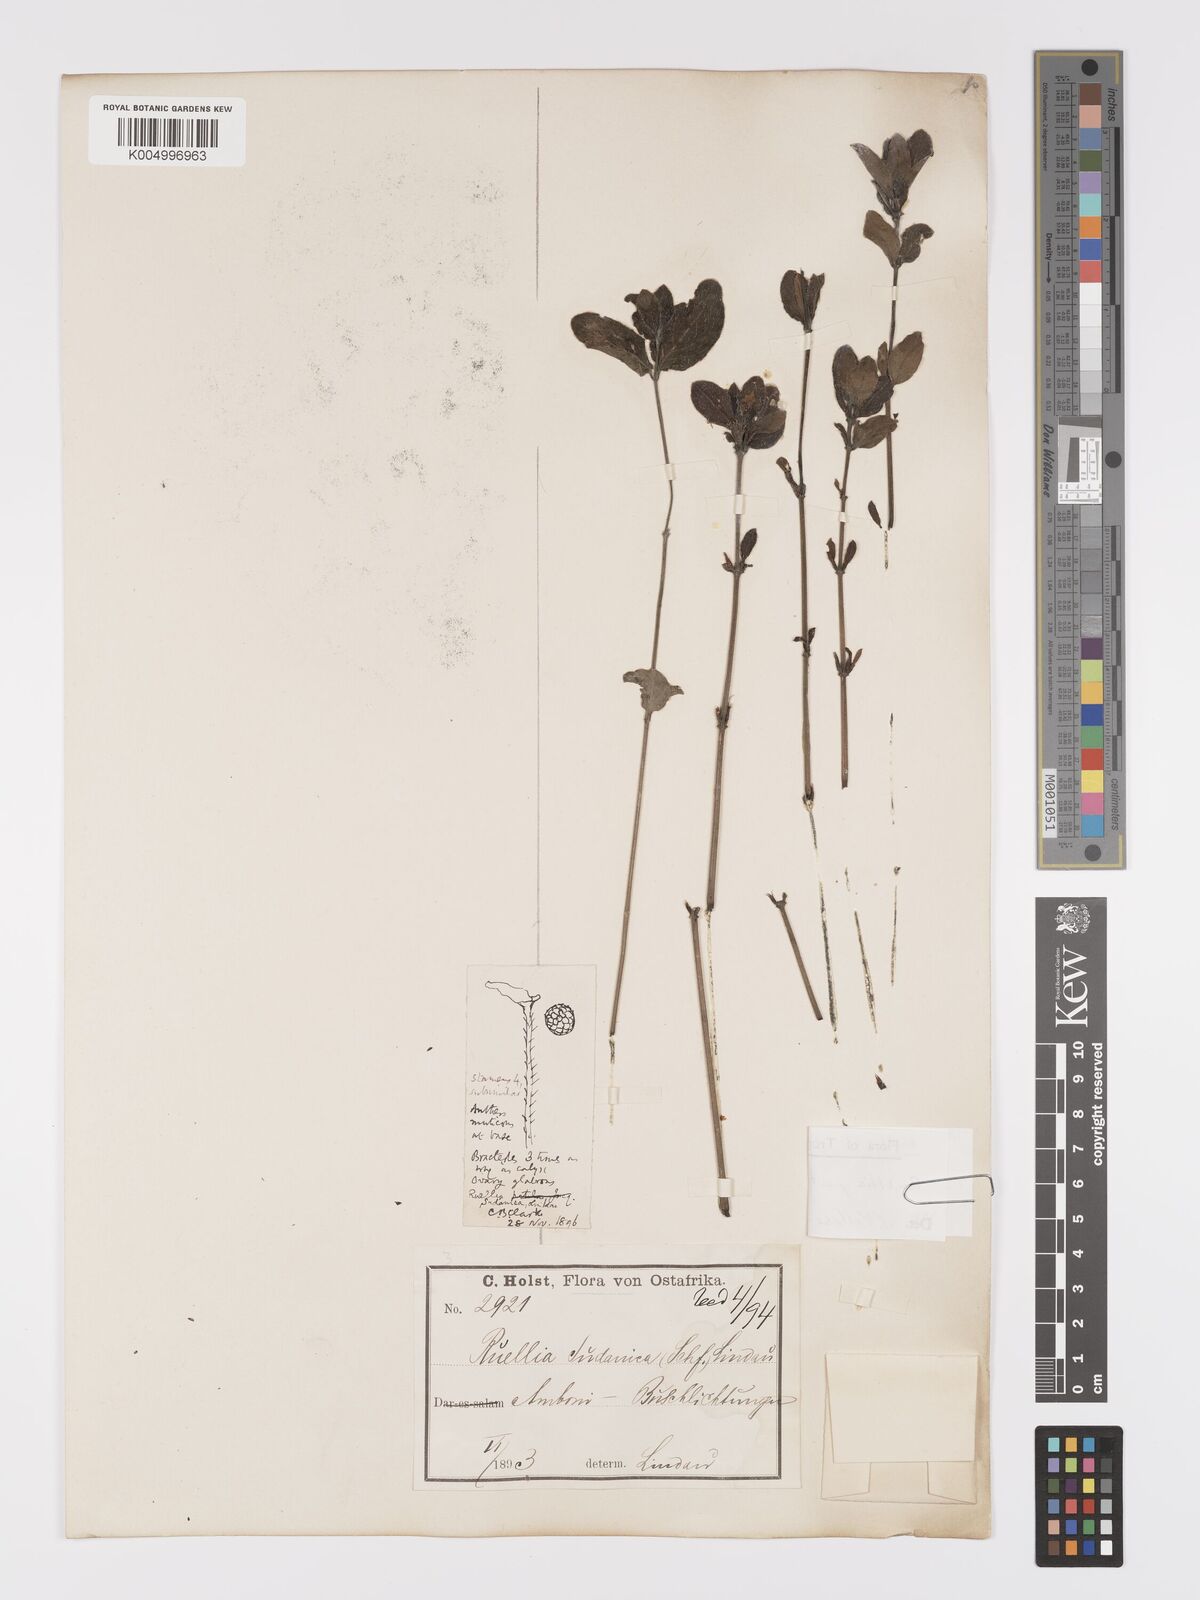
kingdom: Plantae
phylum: Tracheophyta
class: Magnoliopsida
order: Lamiales
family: Acanthaceae
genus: Ruellia
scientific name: Ruellia patula
